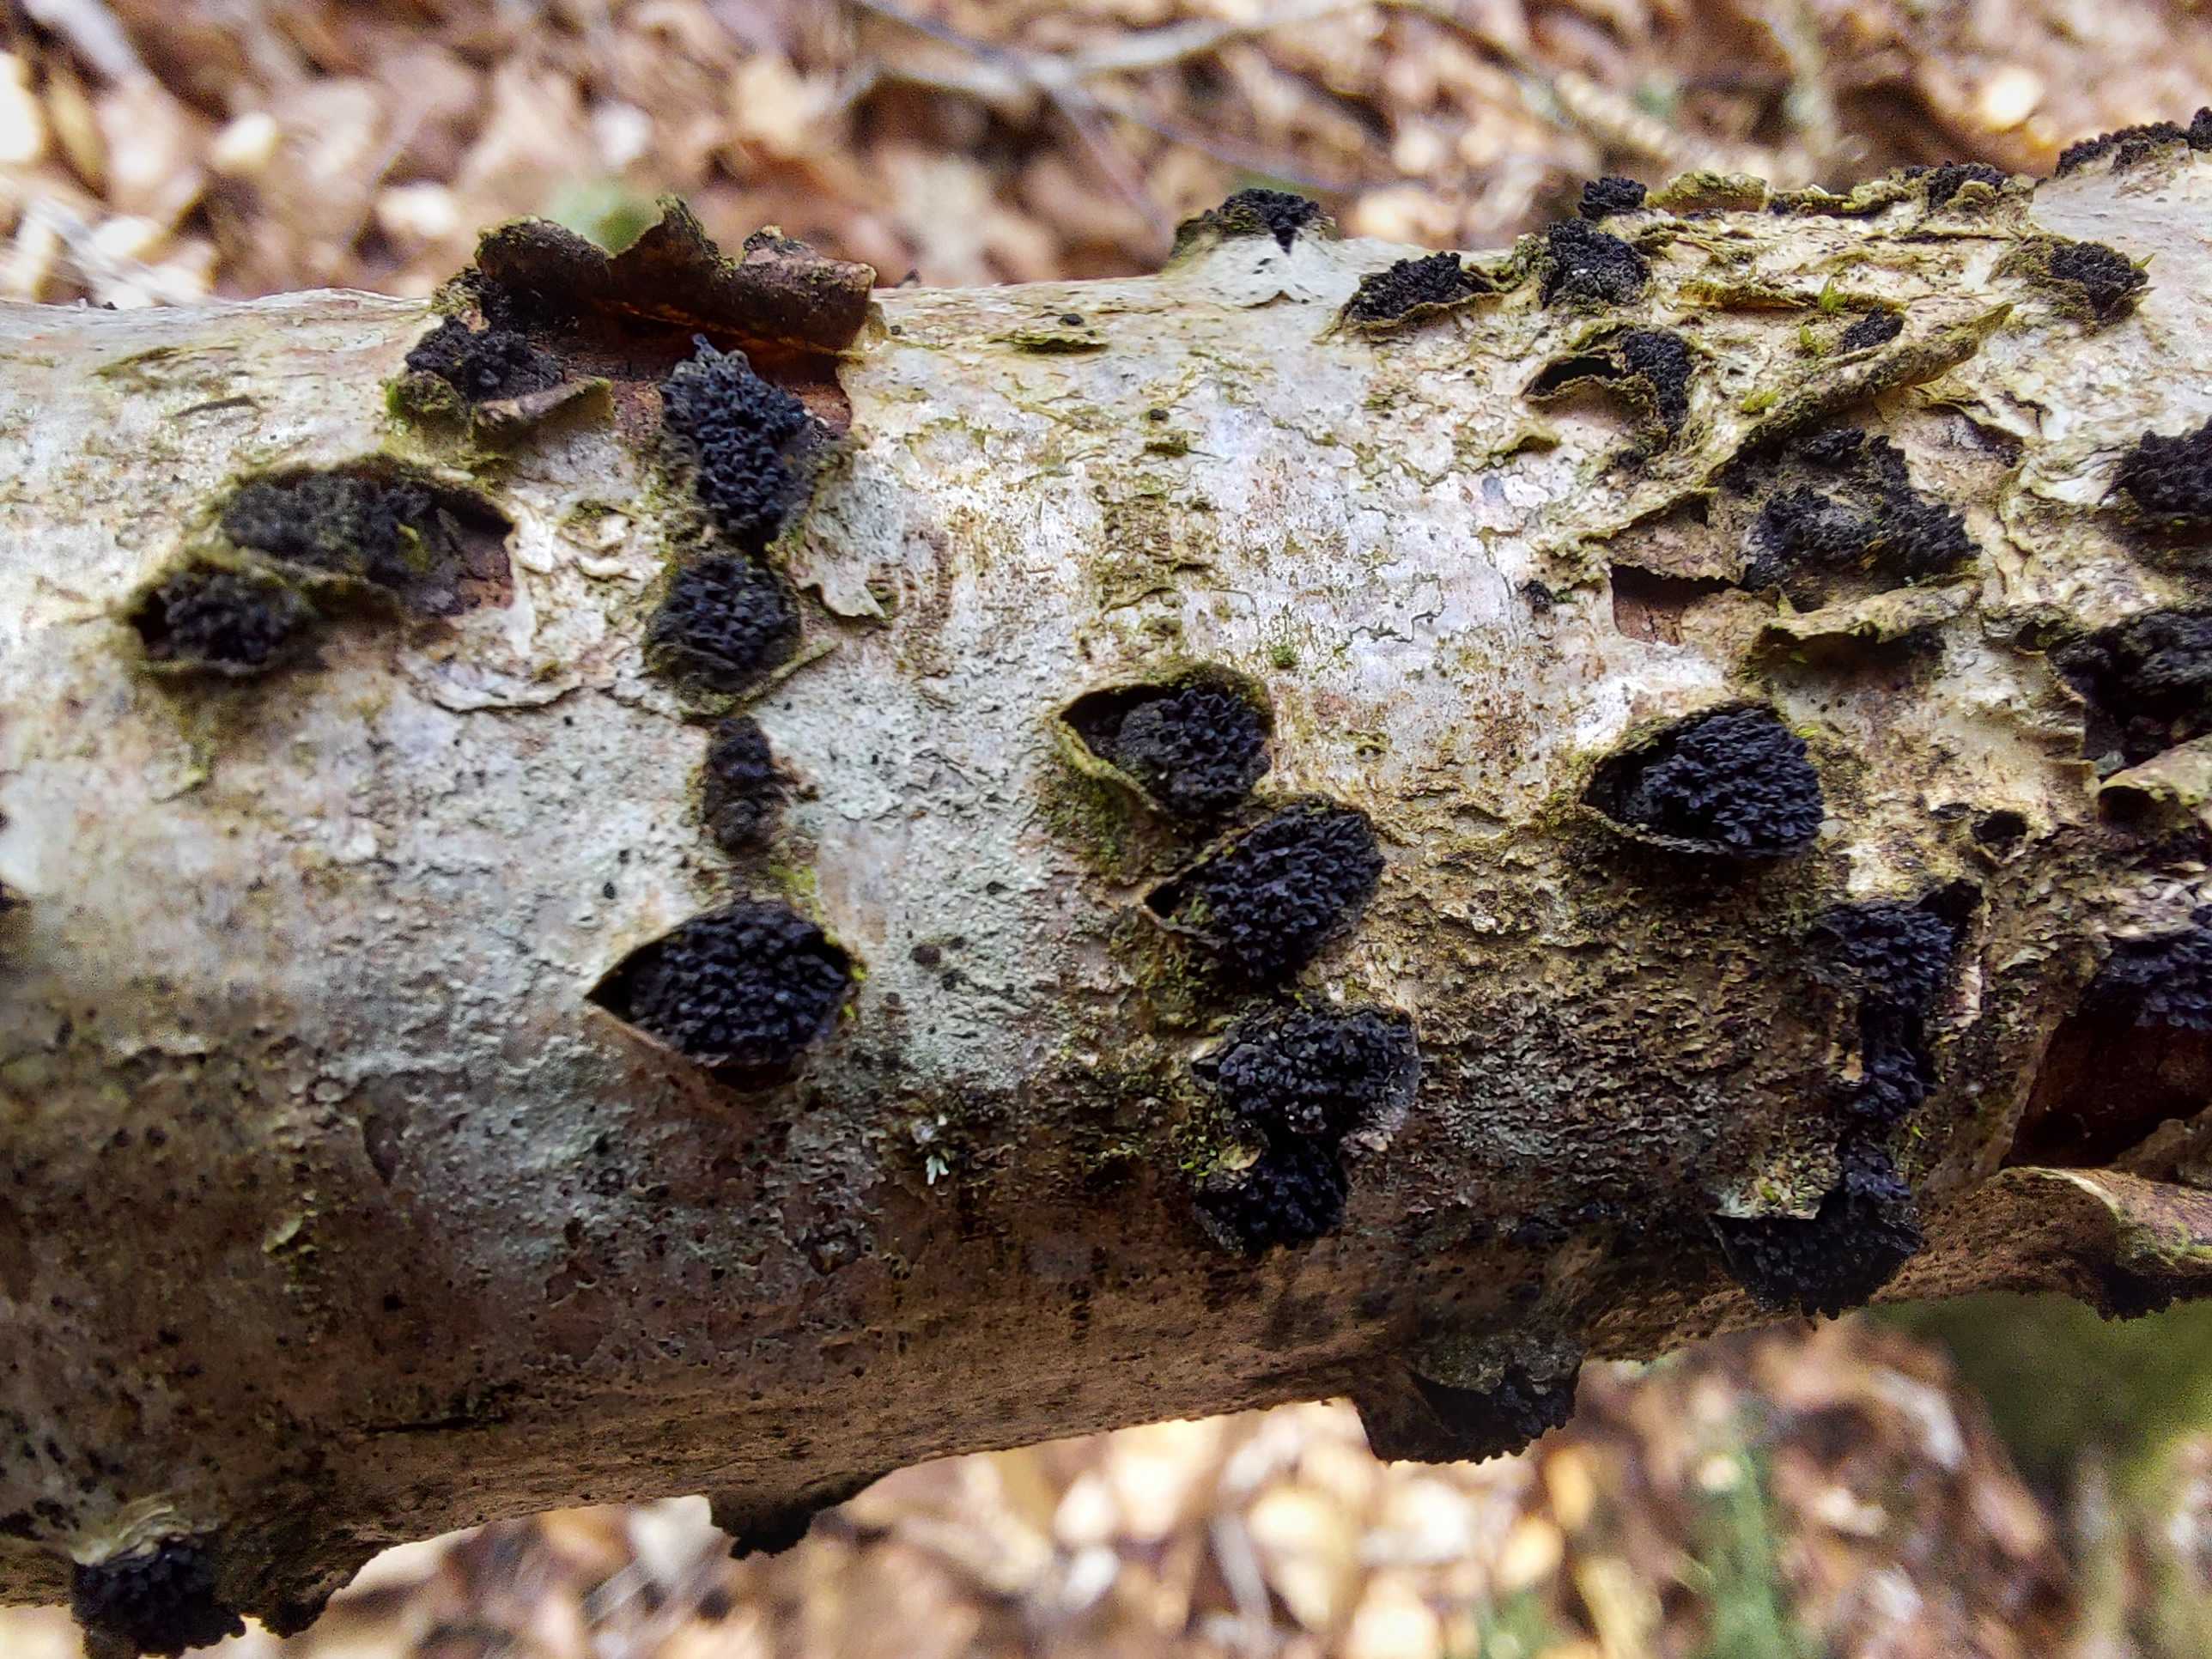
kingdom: Fungi
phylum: Ascomycota
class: Sordariomycetes
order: Xylariales
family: Diatrypaceae
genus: Eutypella
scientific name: Eutypella sorbi
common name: rønne-kulskorpe
